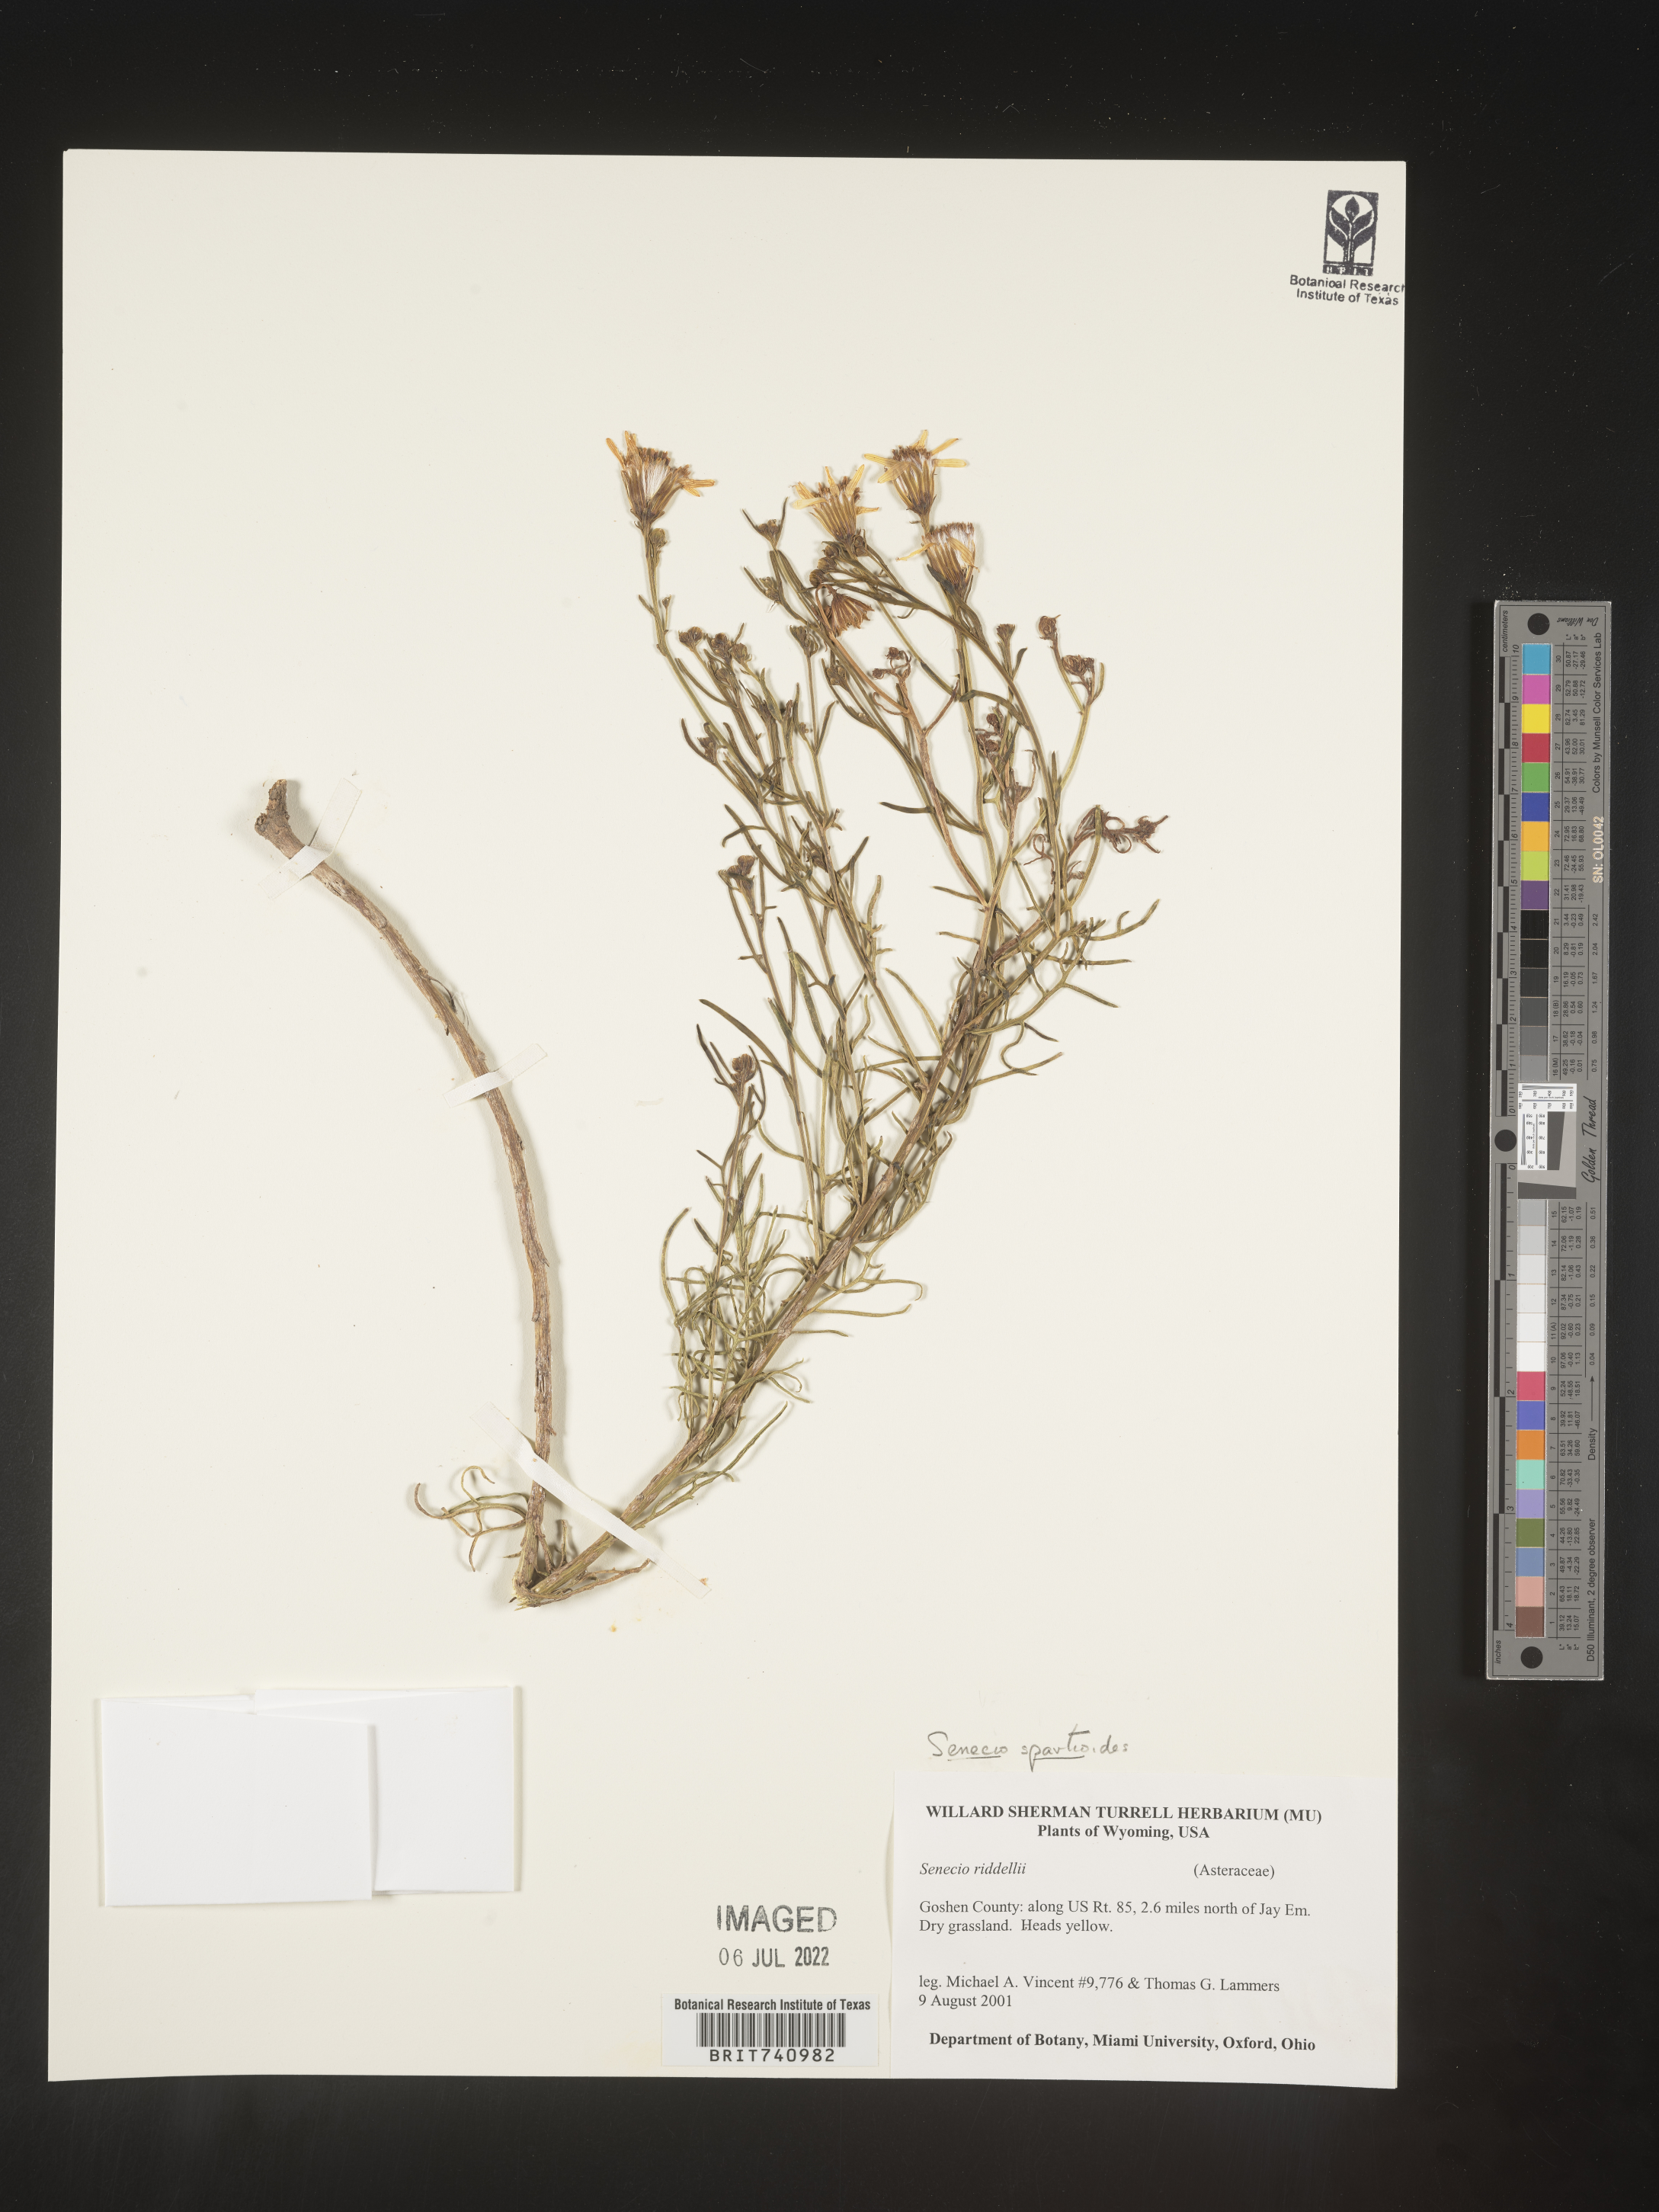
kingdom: Plantae
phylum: Tracheophyta
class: Magnoliopsida
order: Asterales
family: Asteraceae
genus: Senecio
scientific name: Senecio spartioides
